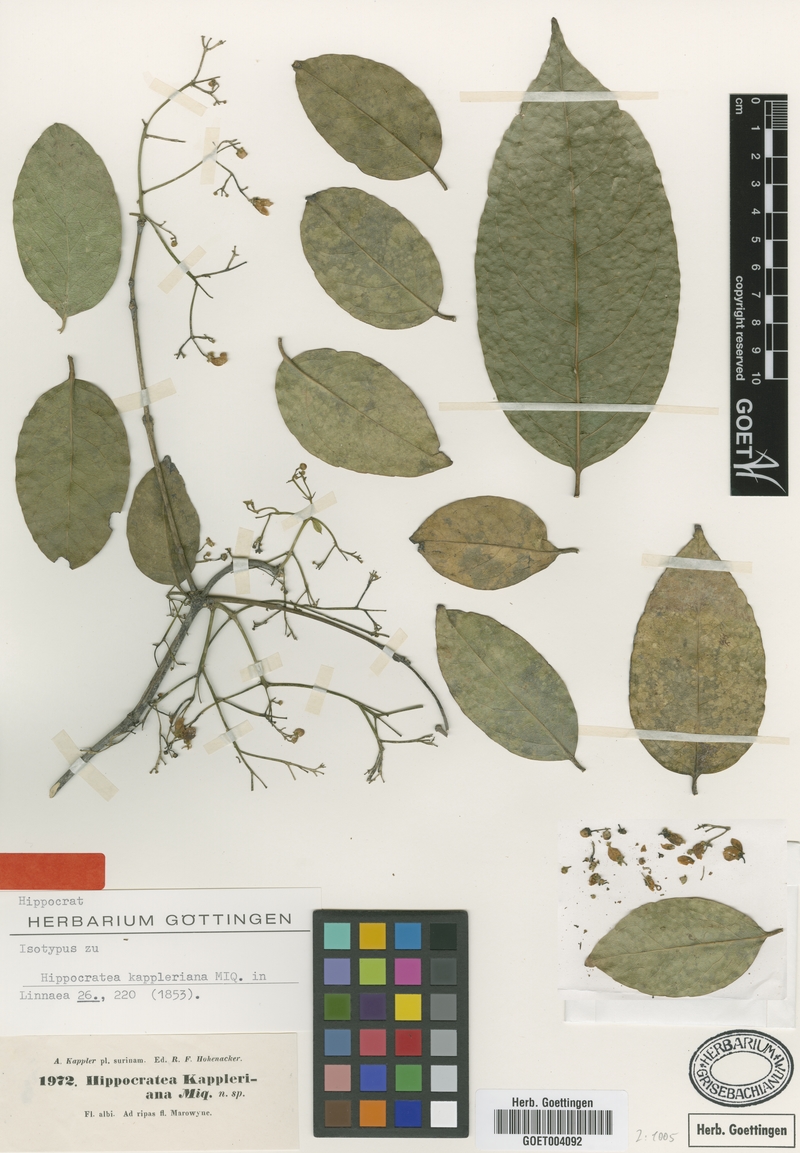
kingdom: Plantae
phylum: Tracheophyta
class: Magnoliopsida
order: Celastrales
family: Celastraceae
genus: Cuervea
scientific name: Cuervea kappleriana
